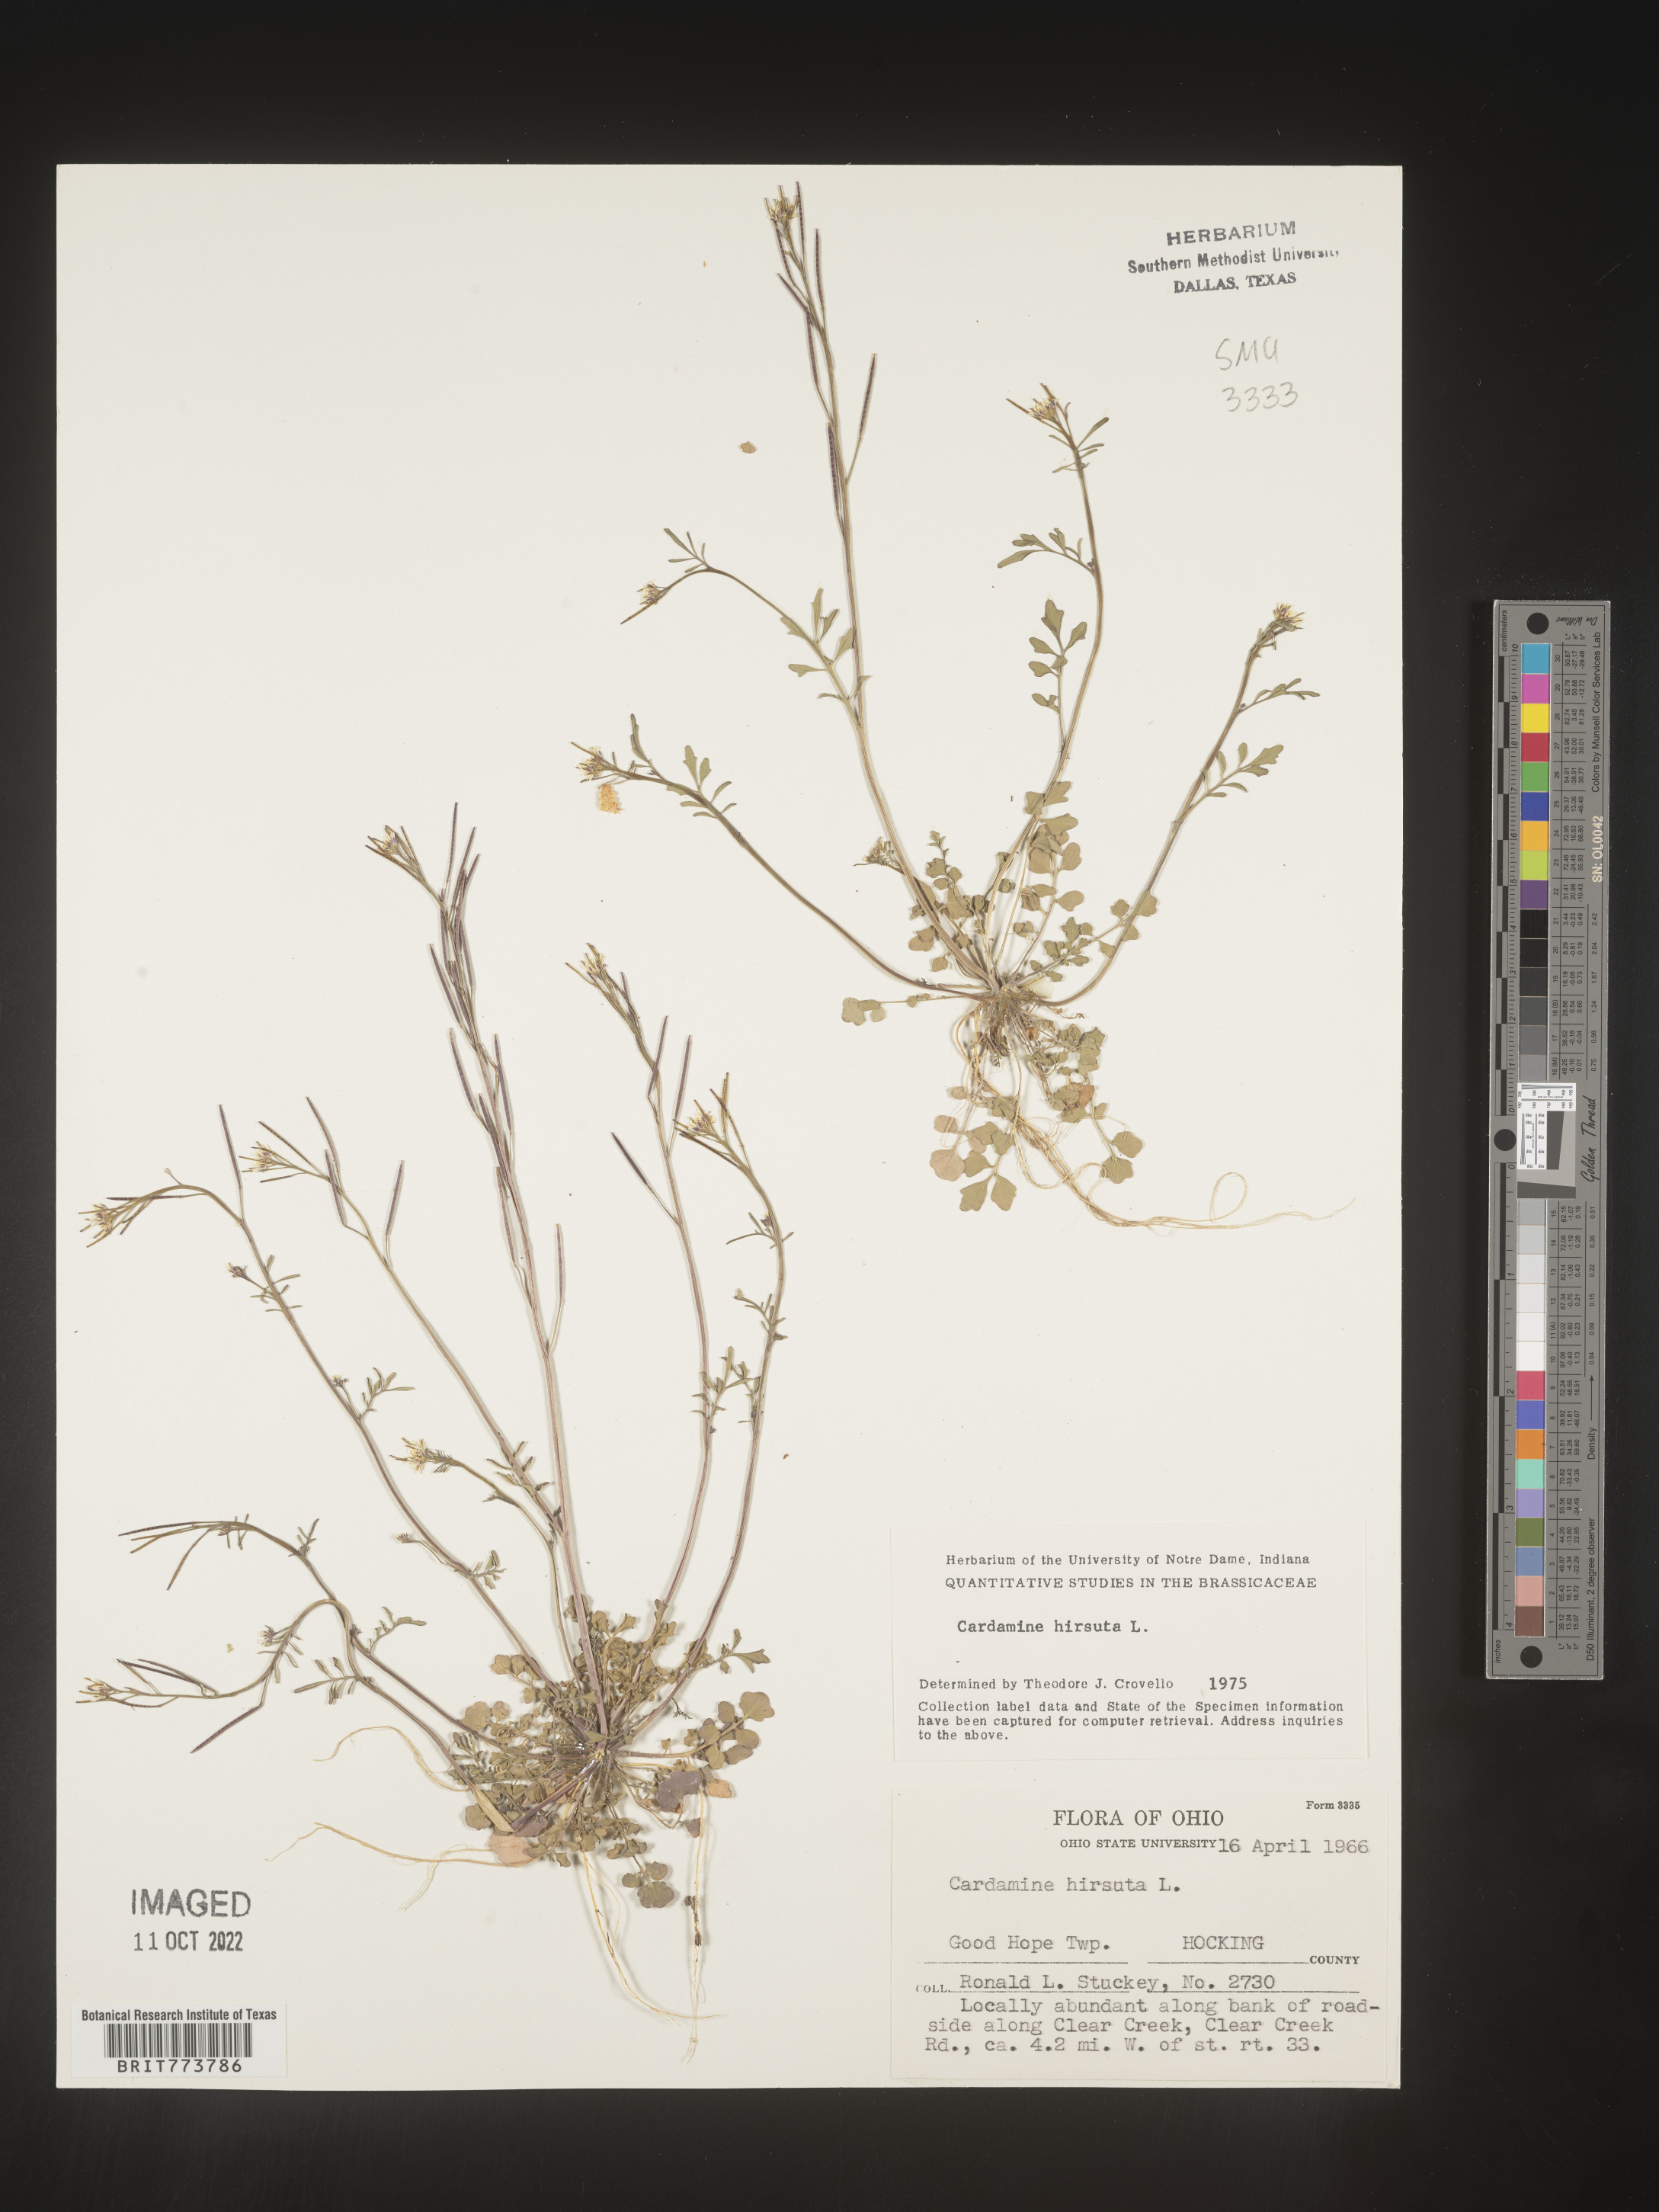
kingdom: Plantae
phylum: Tracheophyta
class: Magnoliopsida
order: Brassicales
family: Brassicaceae
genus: Cardamine
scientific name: Cardamine hirsuta
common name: Hairy bittercress
